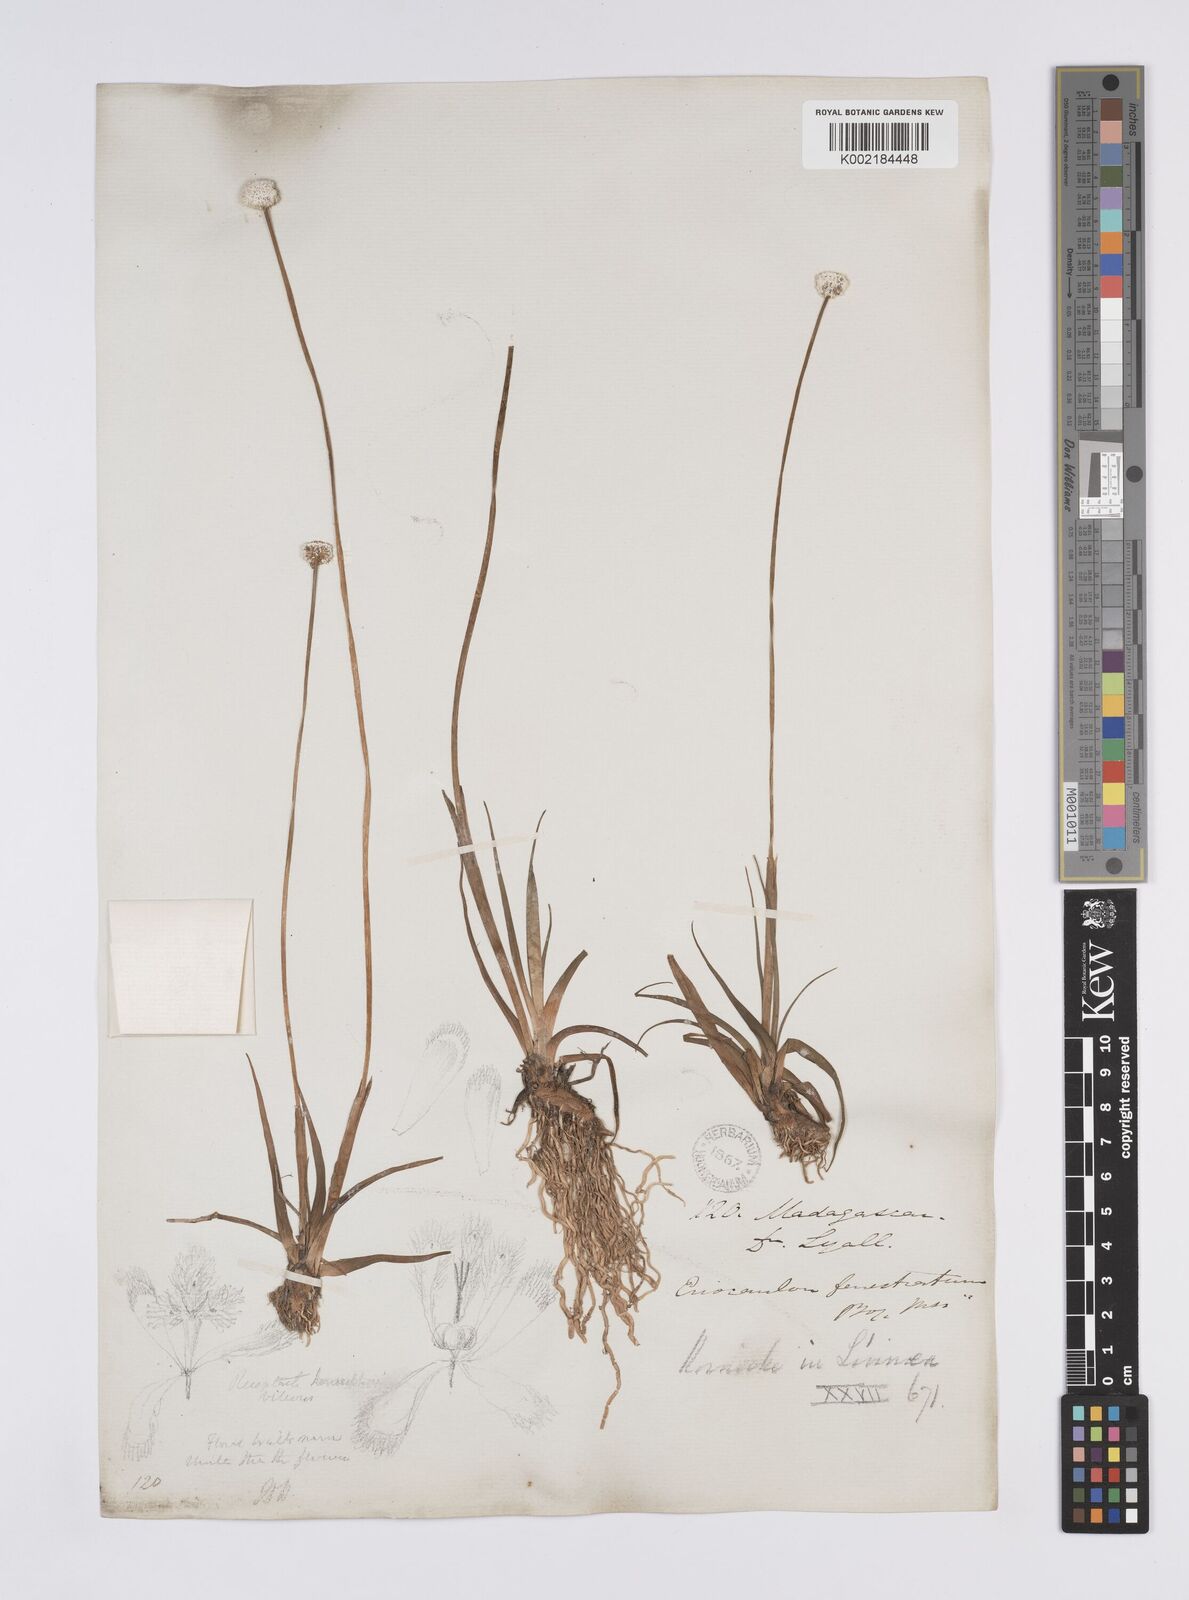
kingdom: Plantae
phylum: Tracheophyta
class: Liliopsida
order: Poales
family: Eriocaulaceae
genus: Eriocaulon
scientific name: Eriocaulon fenestratum
